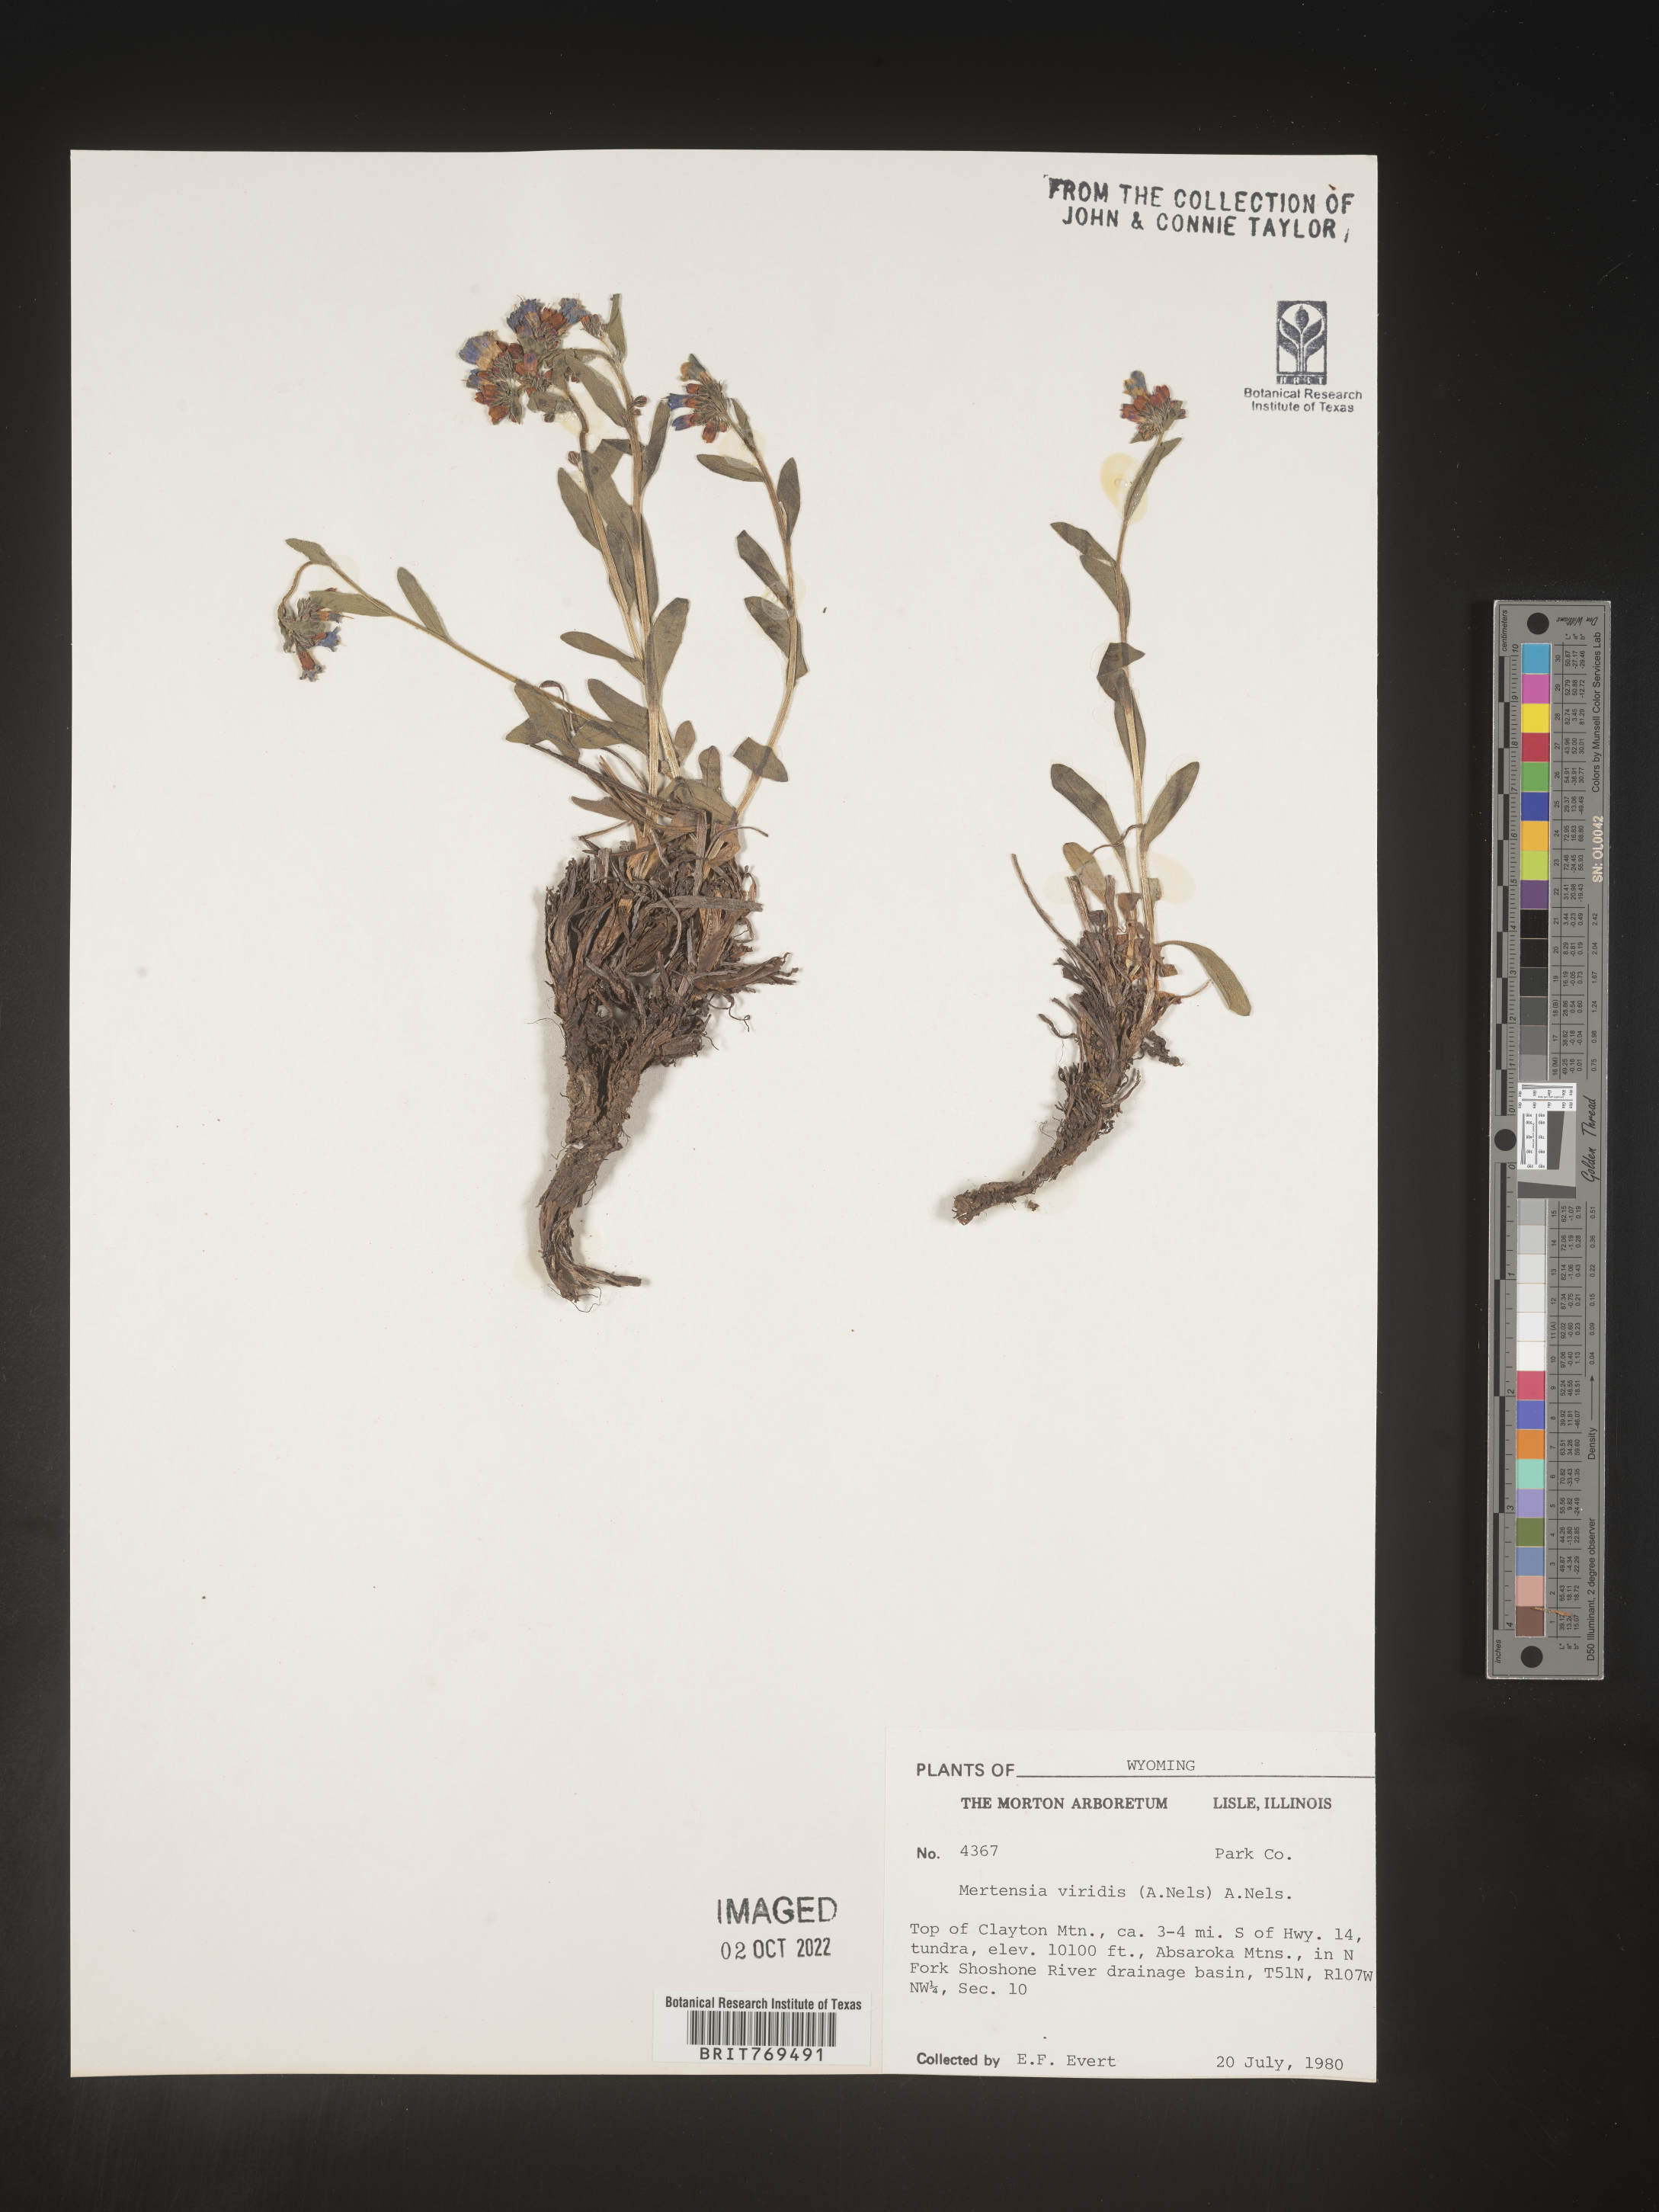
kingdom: Plantae
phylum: Tracheophyta
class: Magnoliopsida
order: Boraginales
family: Boraginaceae
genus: Mertensia
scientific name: Mertensia viridis
